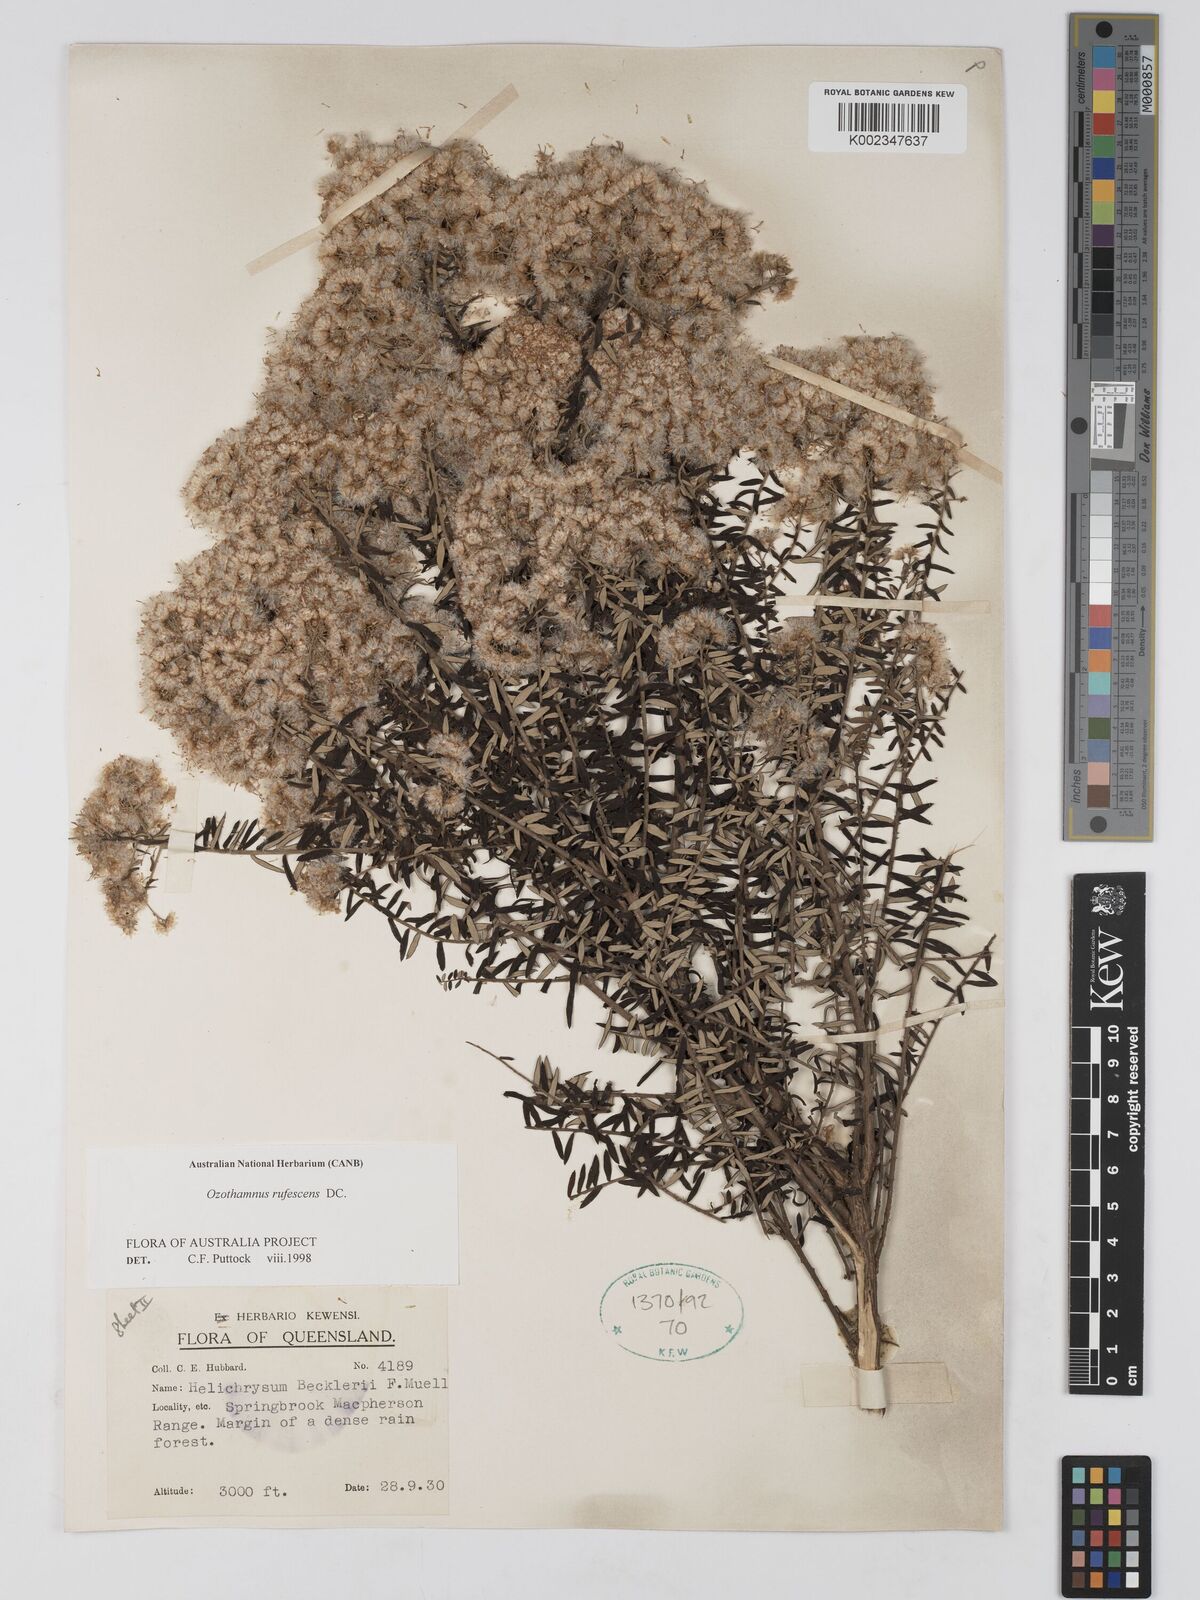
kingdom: Plantae
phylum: Tracheophyta
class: Magnoliopsida
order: Asterales
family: Asteraceae
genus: Ozothamnus
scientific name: Ozothamnus rufescens
